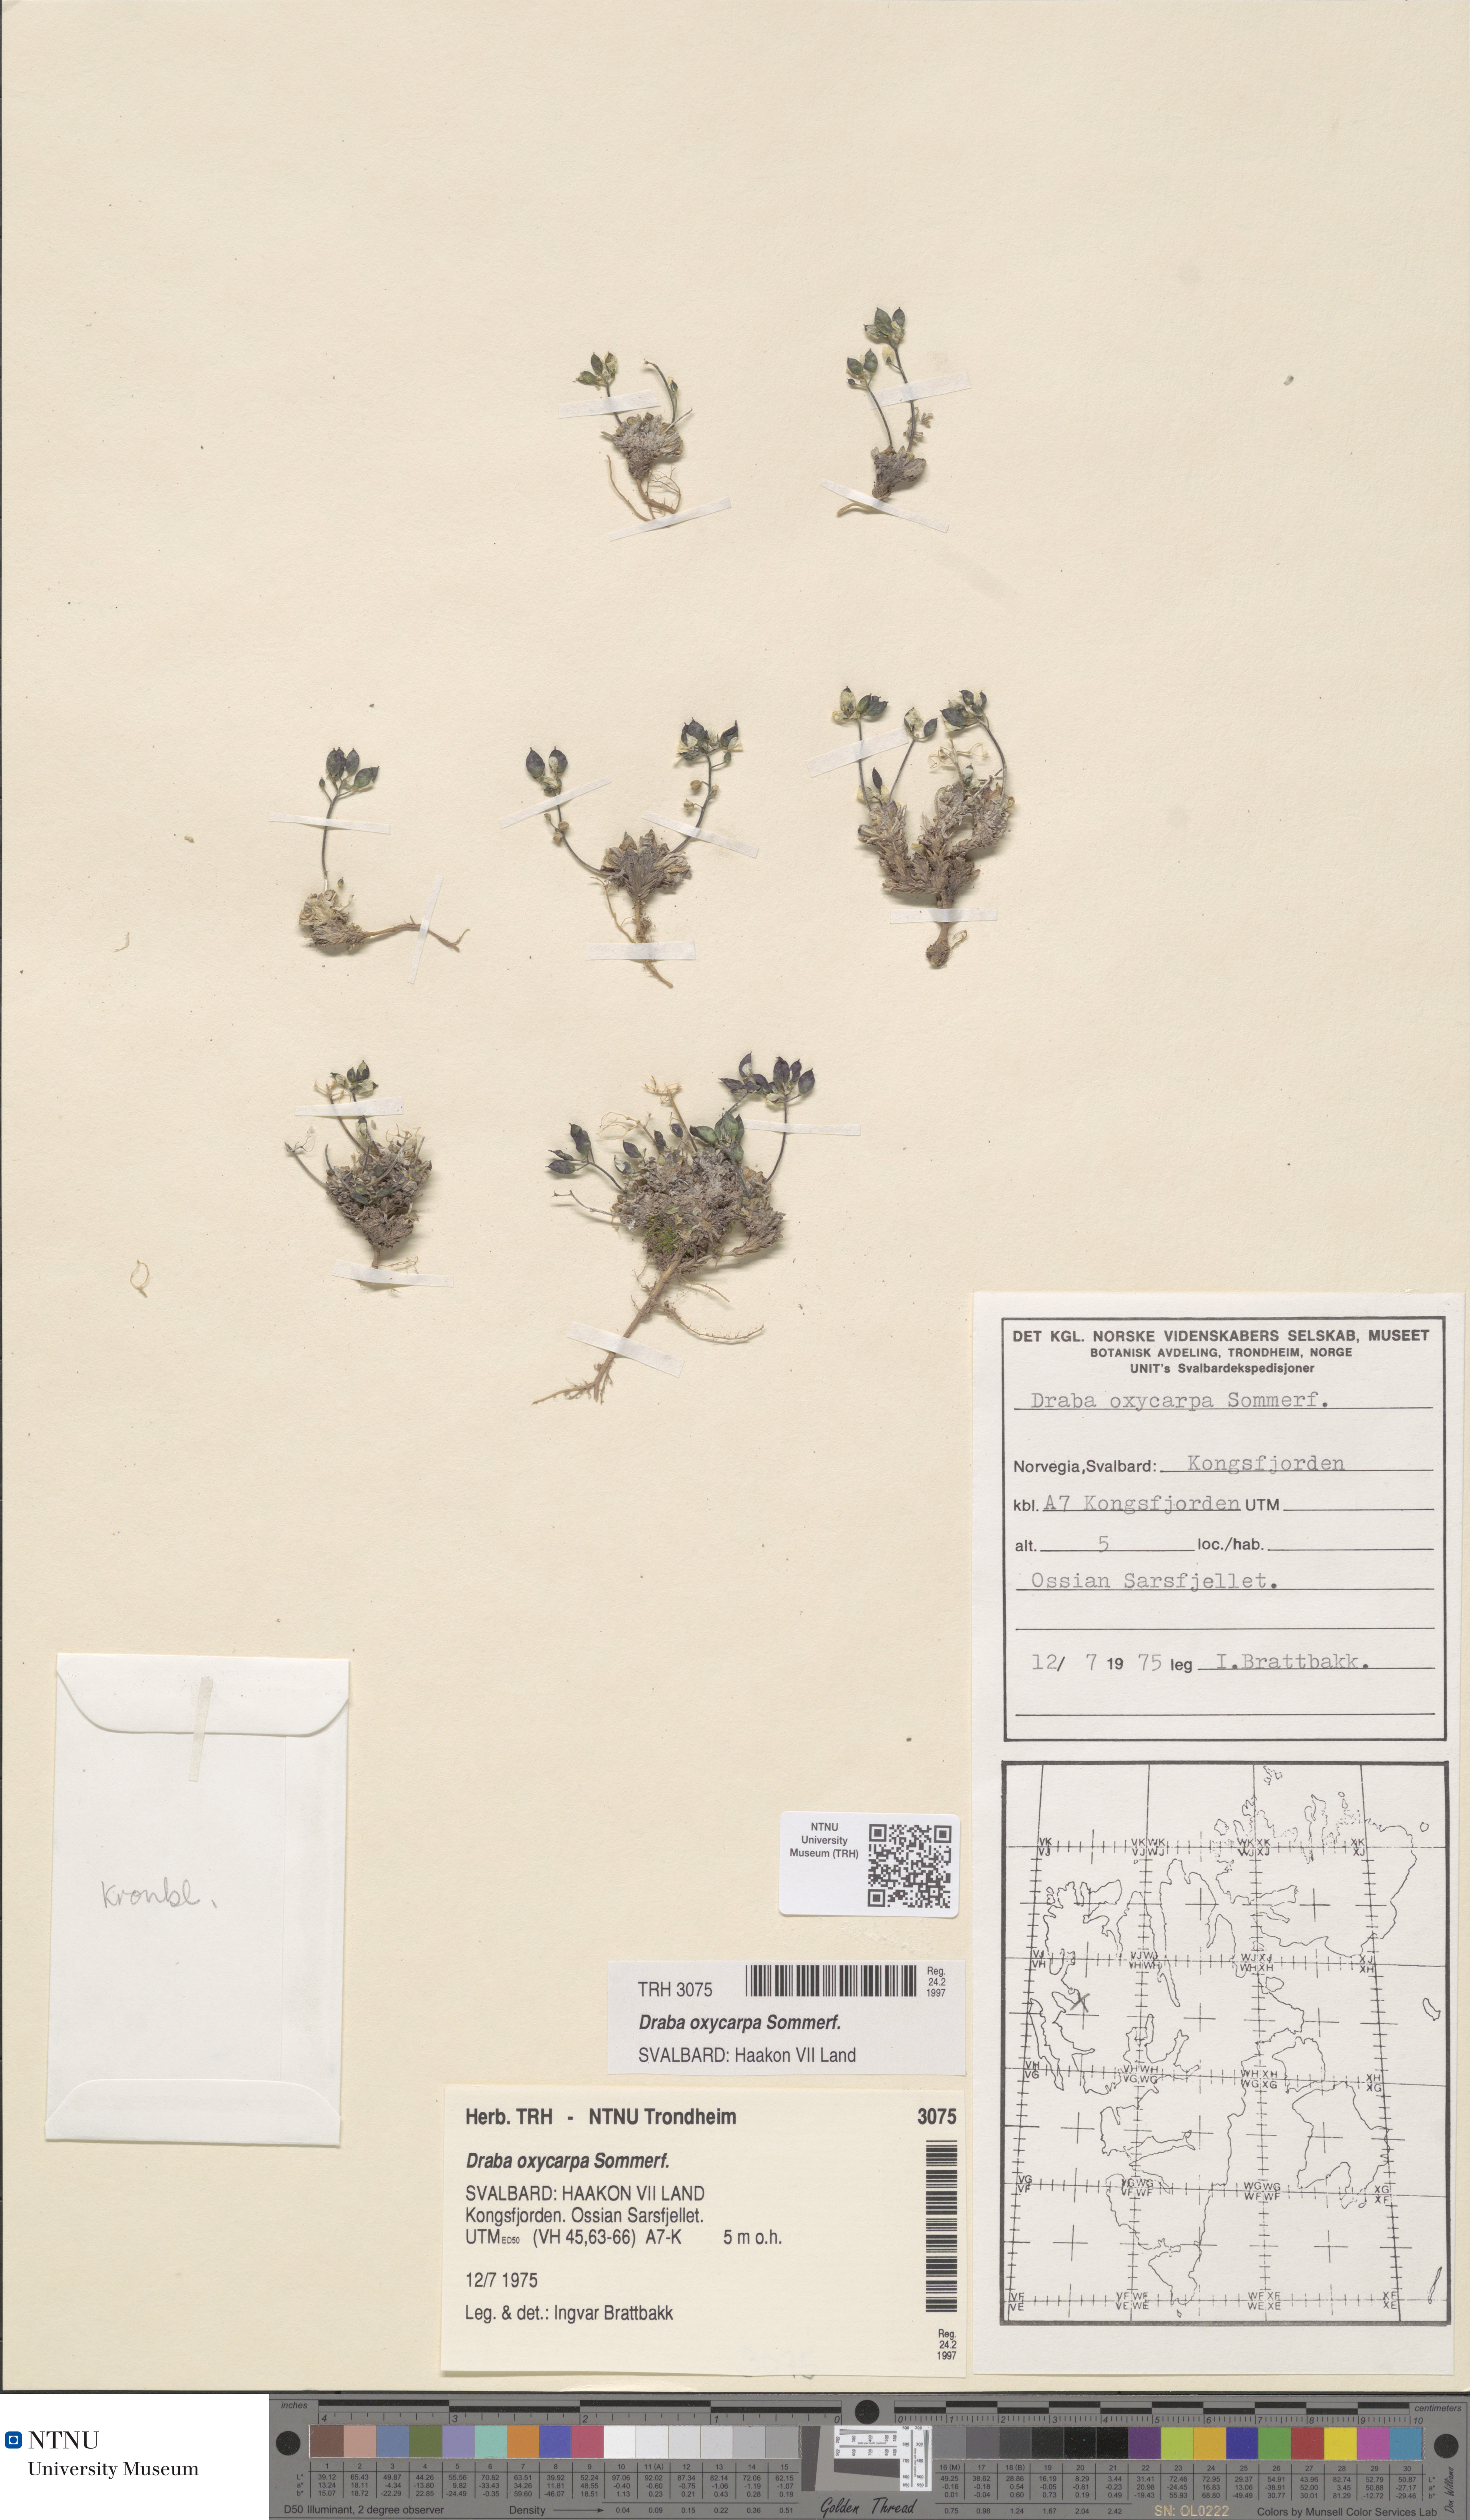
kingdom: Plantae
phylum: Tracheophyta
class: Magnoliopsida
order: Brassicales
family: Brassicaceae
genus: Draba
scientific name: Draba oxycarpa
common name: Sharp-fruited whitlow-grass
